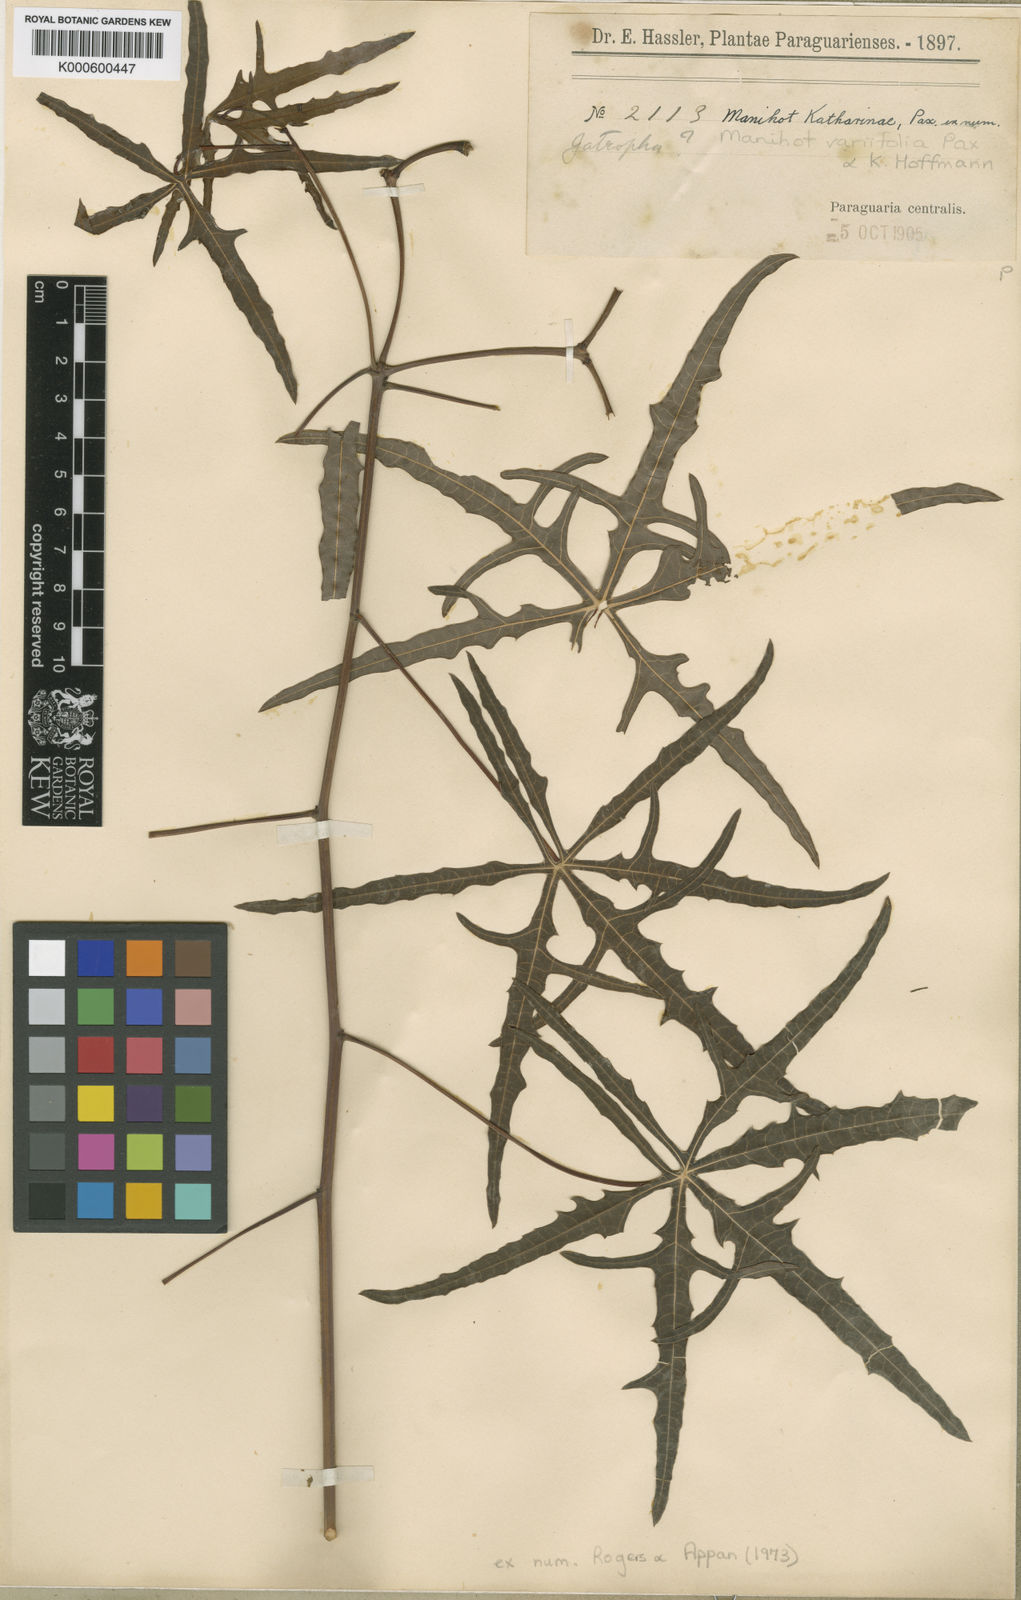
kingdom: Plantae
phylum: Tracheophyta
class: Magnoliopsida
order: Malpighiales
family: Euphorbiaceae
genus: Manihot
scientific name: Manihot variifolia
